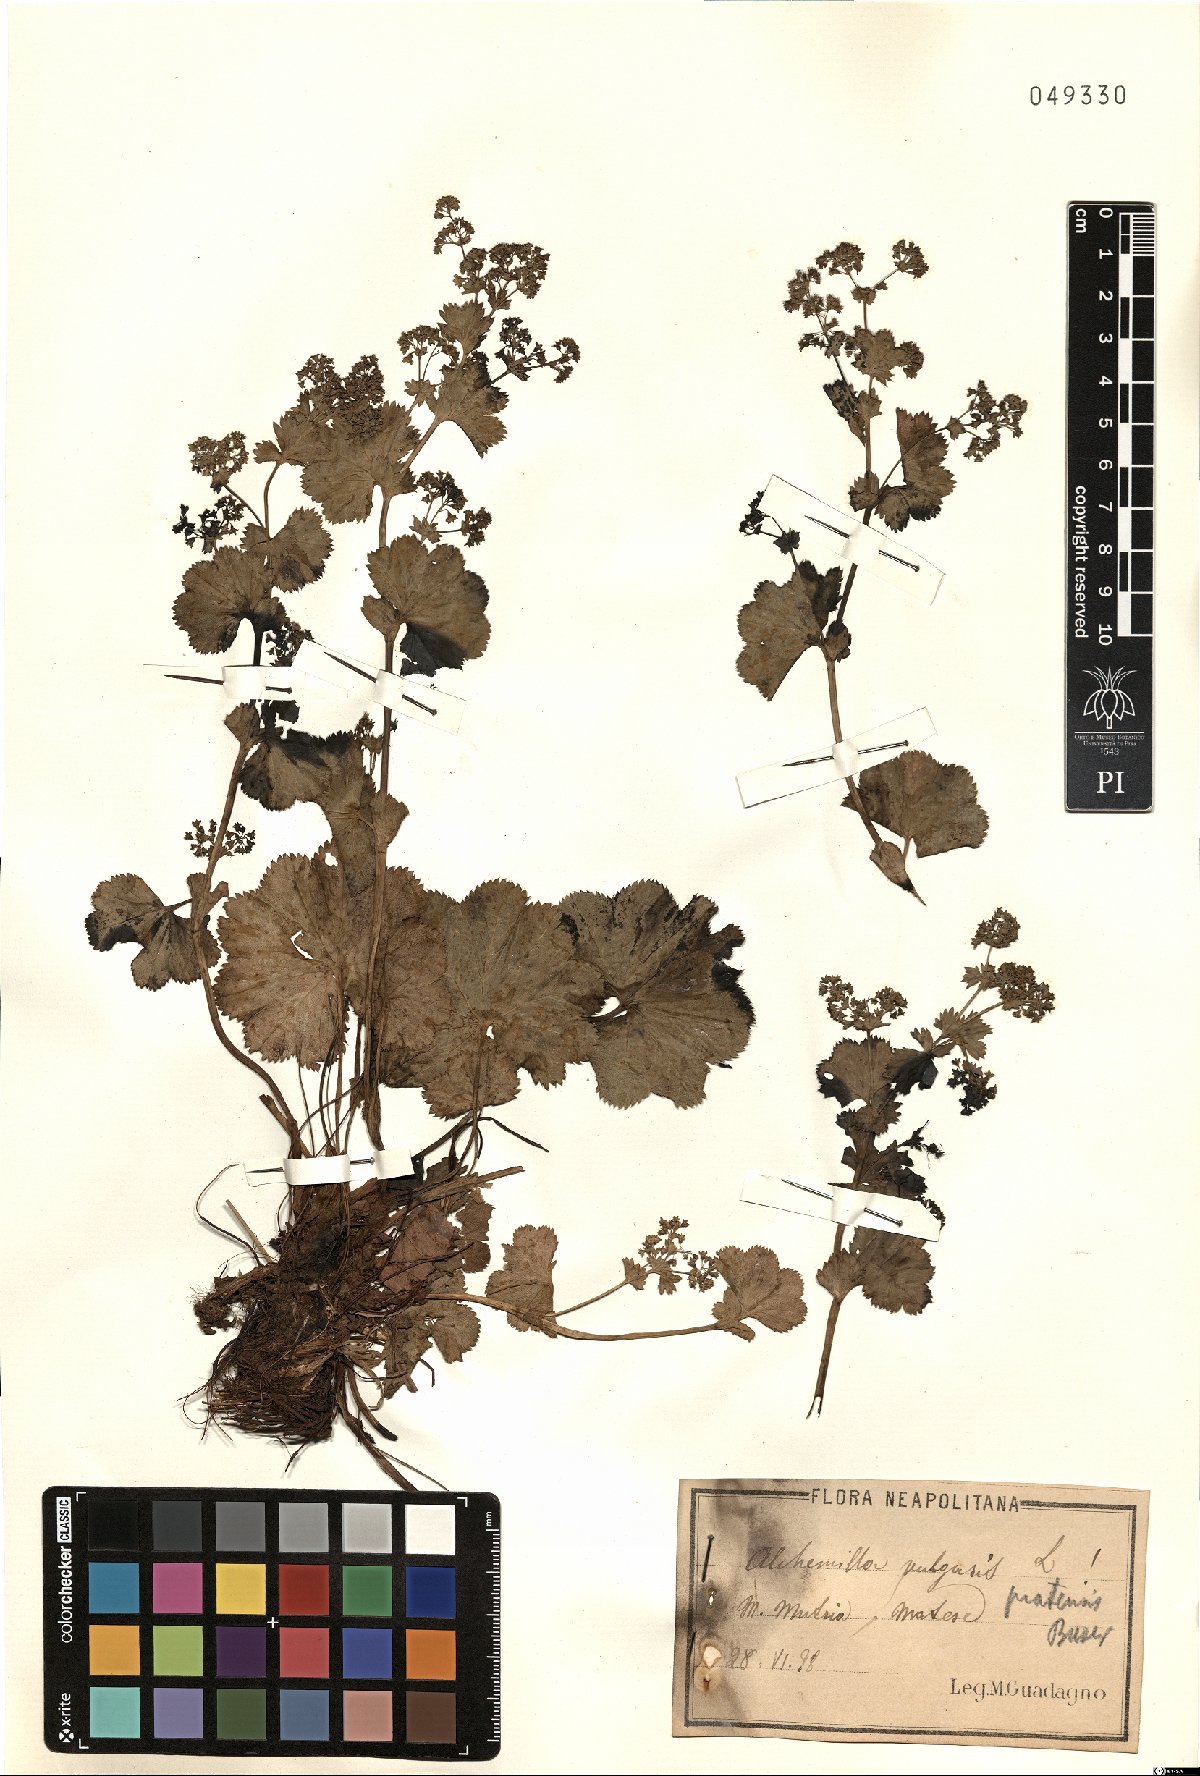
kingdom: Plantae
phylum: Tracheophyta
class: Magnoliopsida
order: Rosales
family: Rosaceae
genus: Alchemilla
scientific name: Alchemilla straminea
